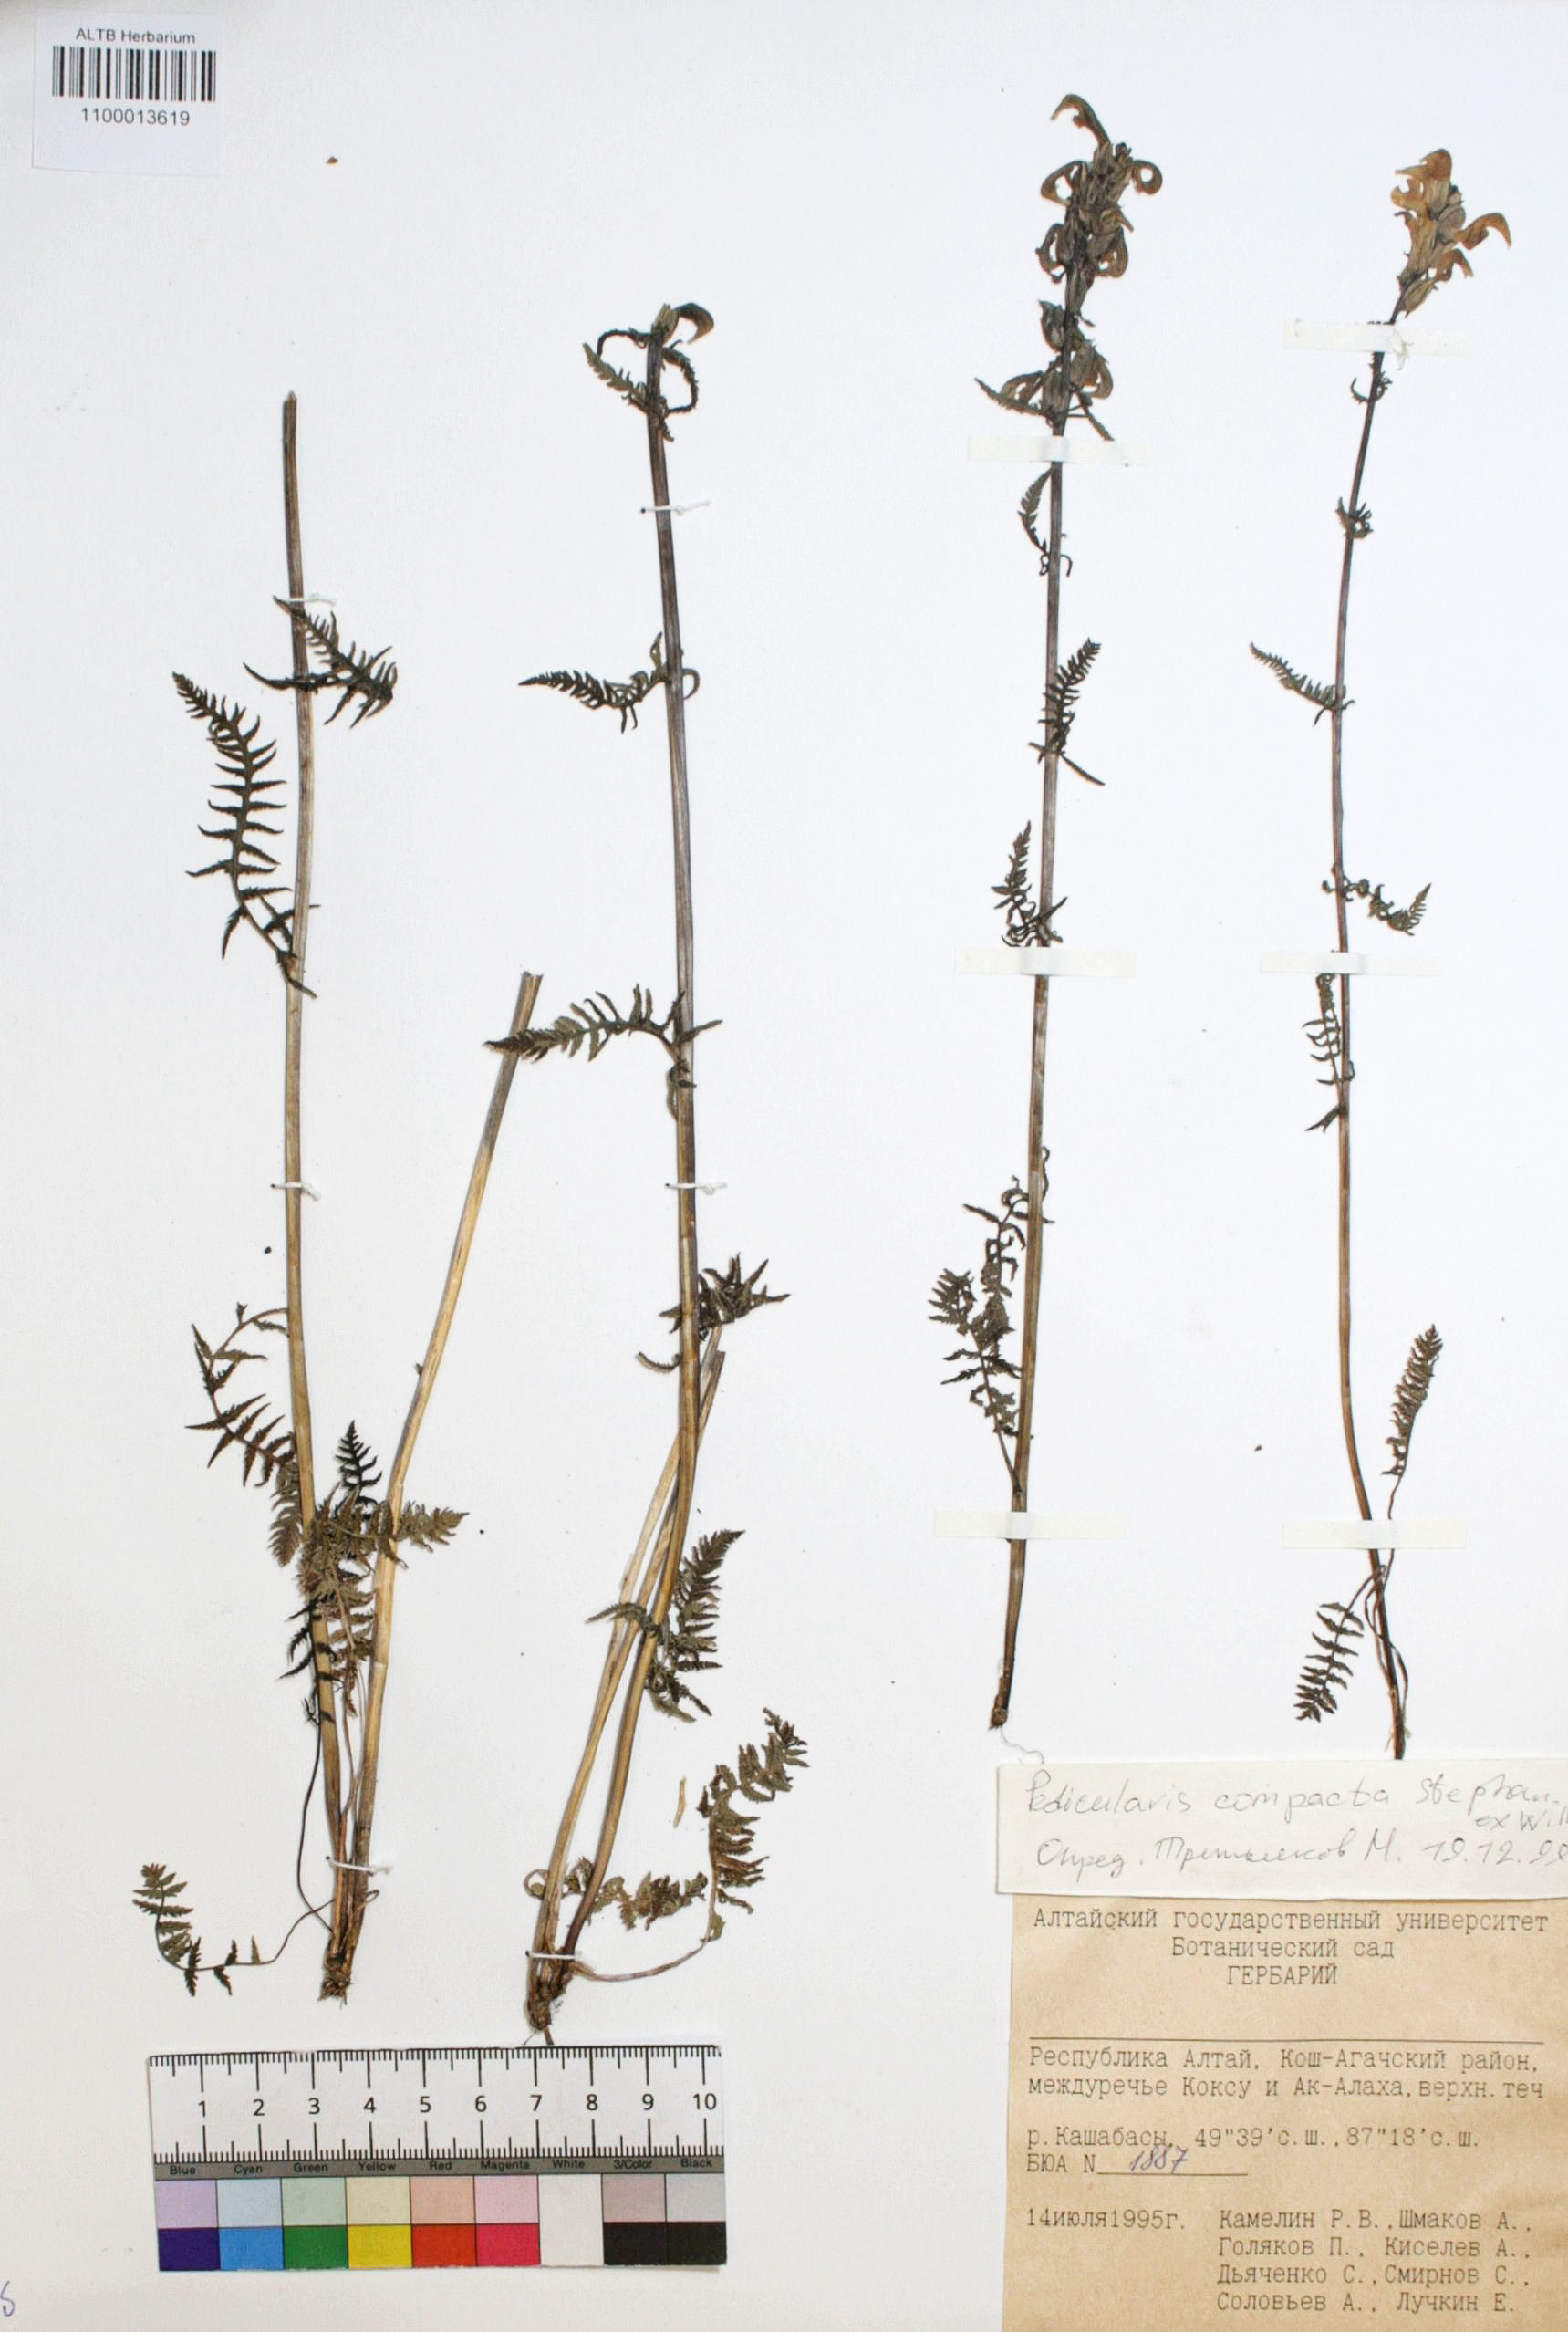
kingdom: Plantae
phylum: Tracheophyta
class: Magnoliopsida
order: Lamiales
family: Orobanchaceae
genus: Pedicularis
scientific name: Pedicularis compacta
